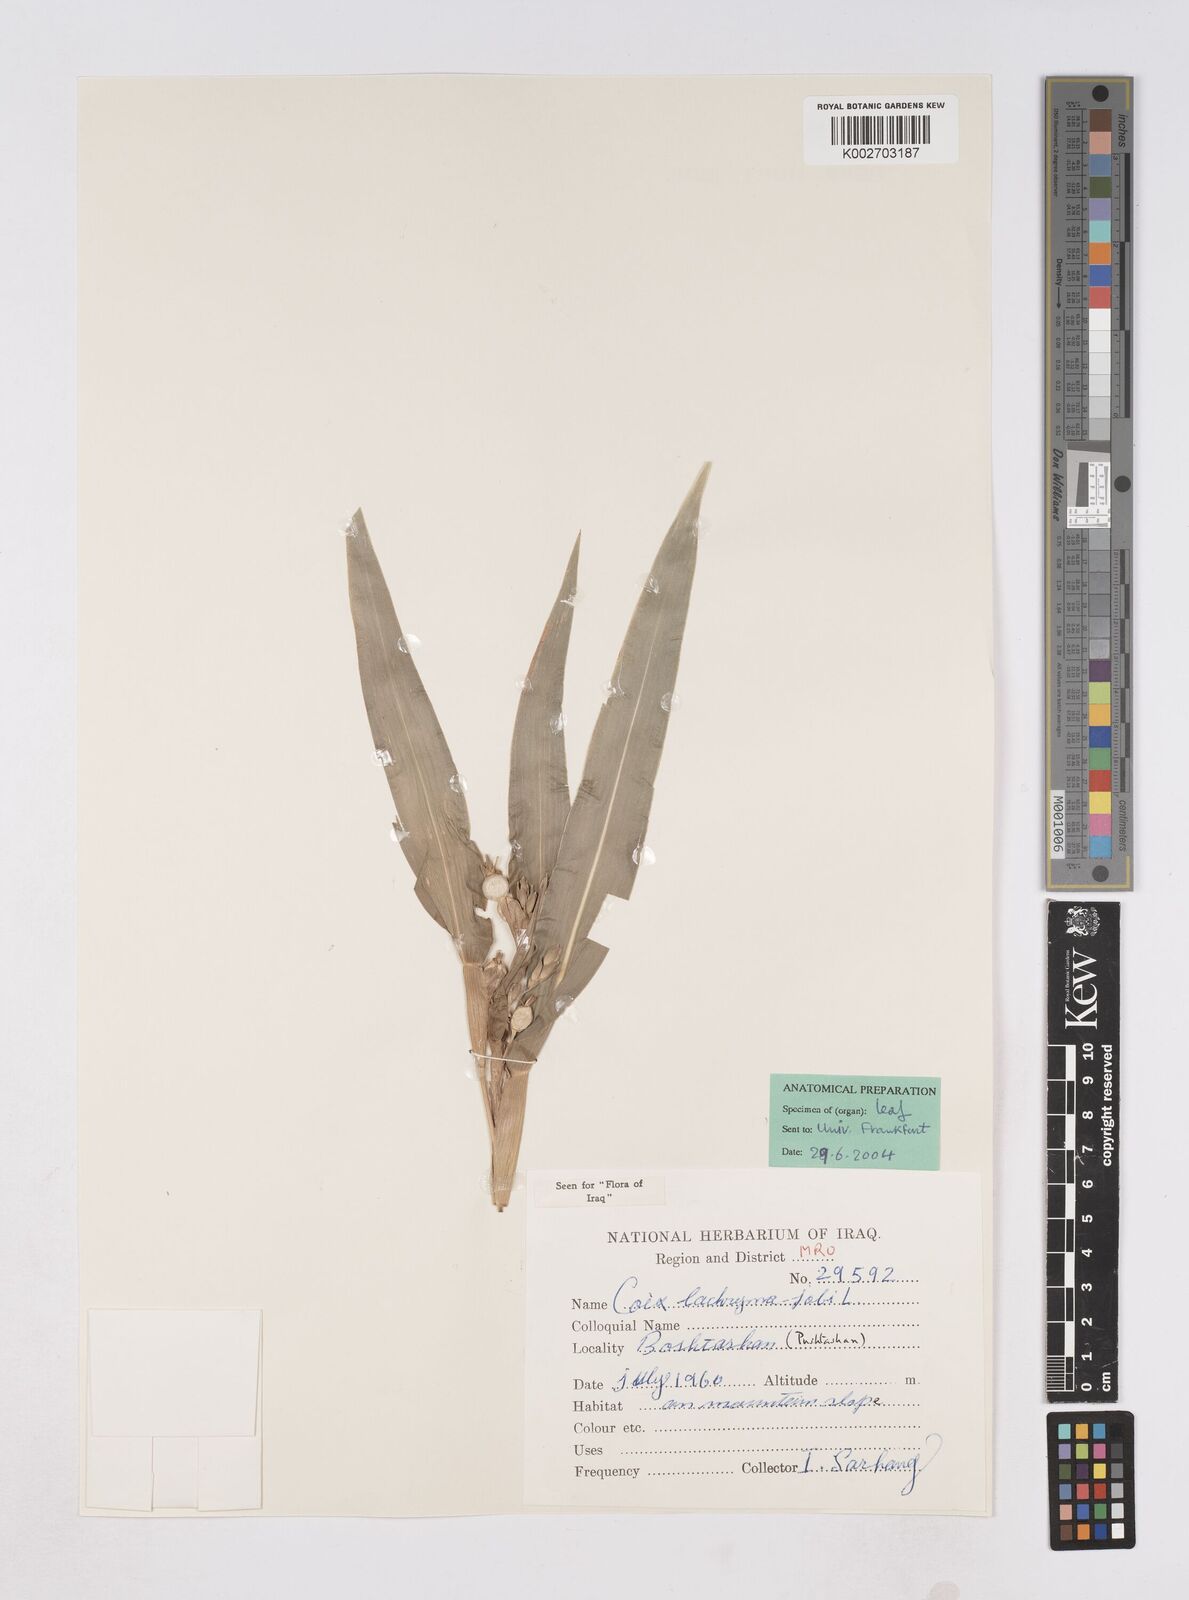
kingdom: Plantae
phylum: Tracheophyta
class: Liliopsida
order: Poales
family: Poaceae
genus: Coix
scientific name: Coix lacryma-jobi
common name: Job's tears
